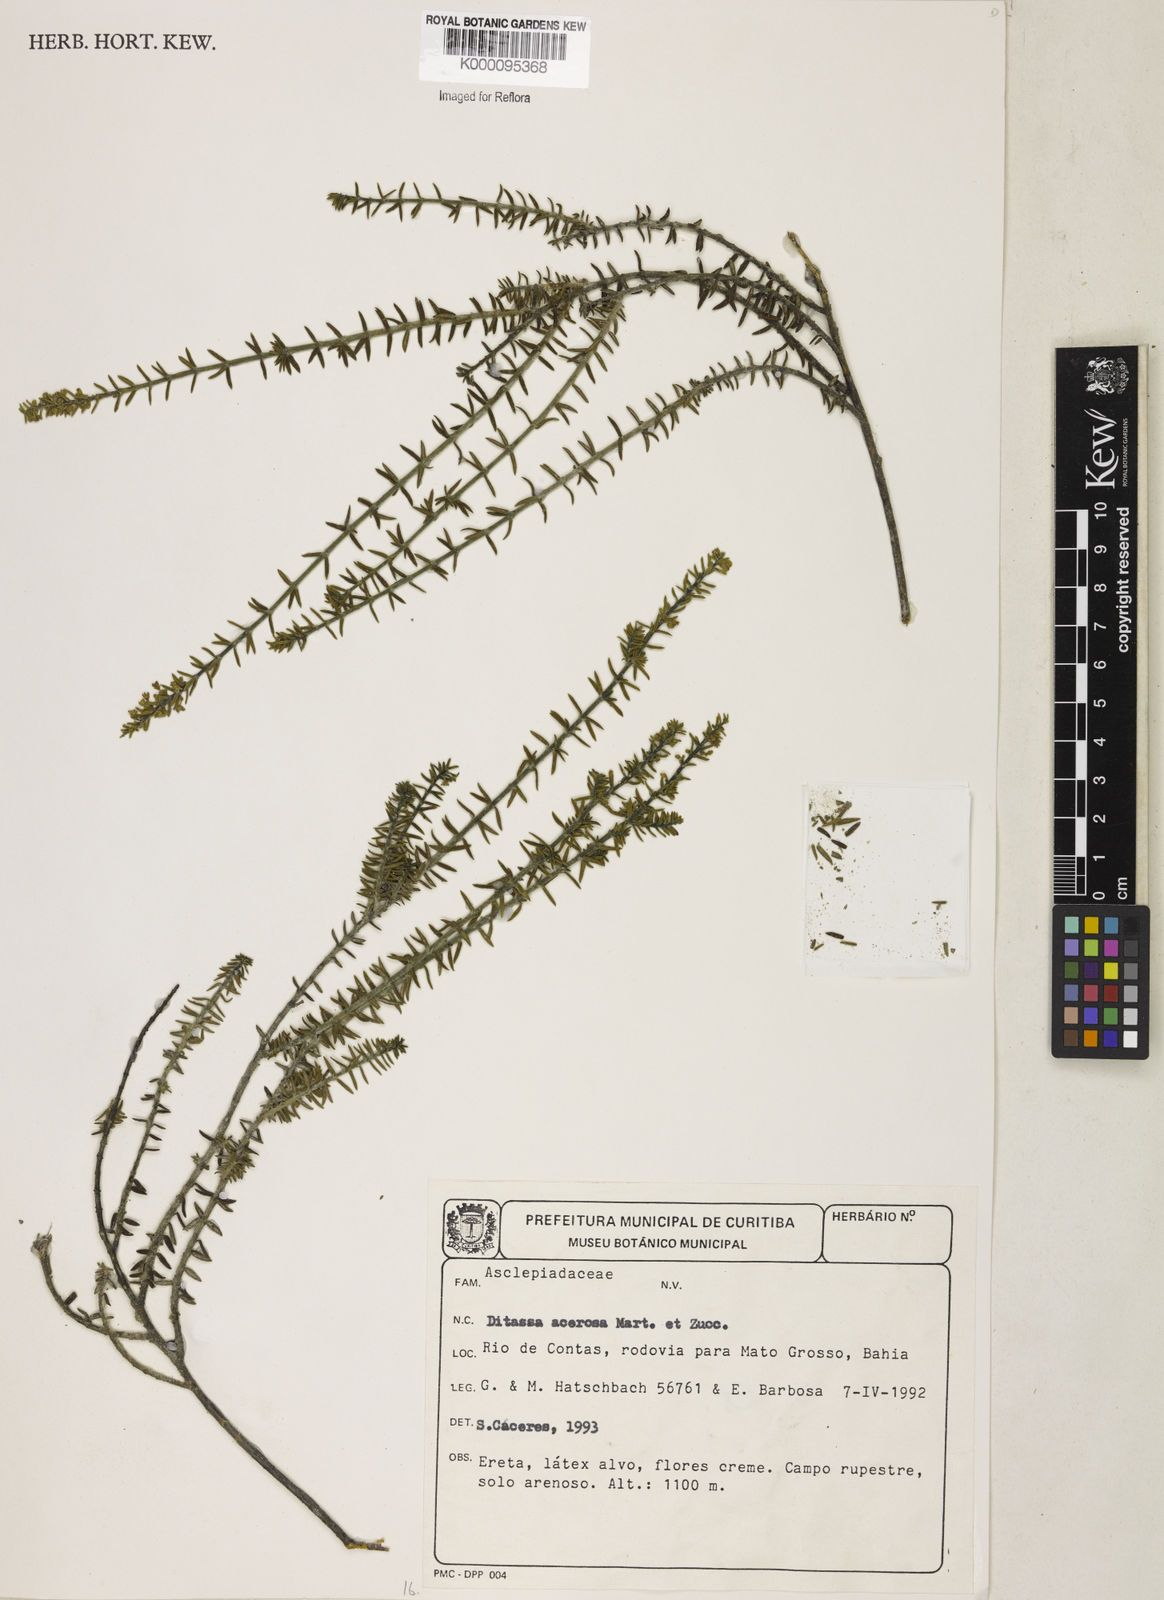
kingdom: Plantae
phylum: Tracheophyta
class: Magnoliopsida
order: Gentianales
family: Apocynaceae
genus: Minaria
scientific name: Minaria acerosa
